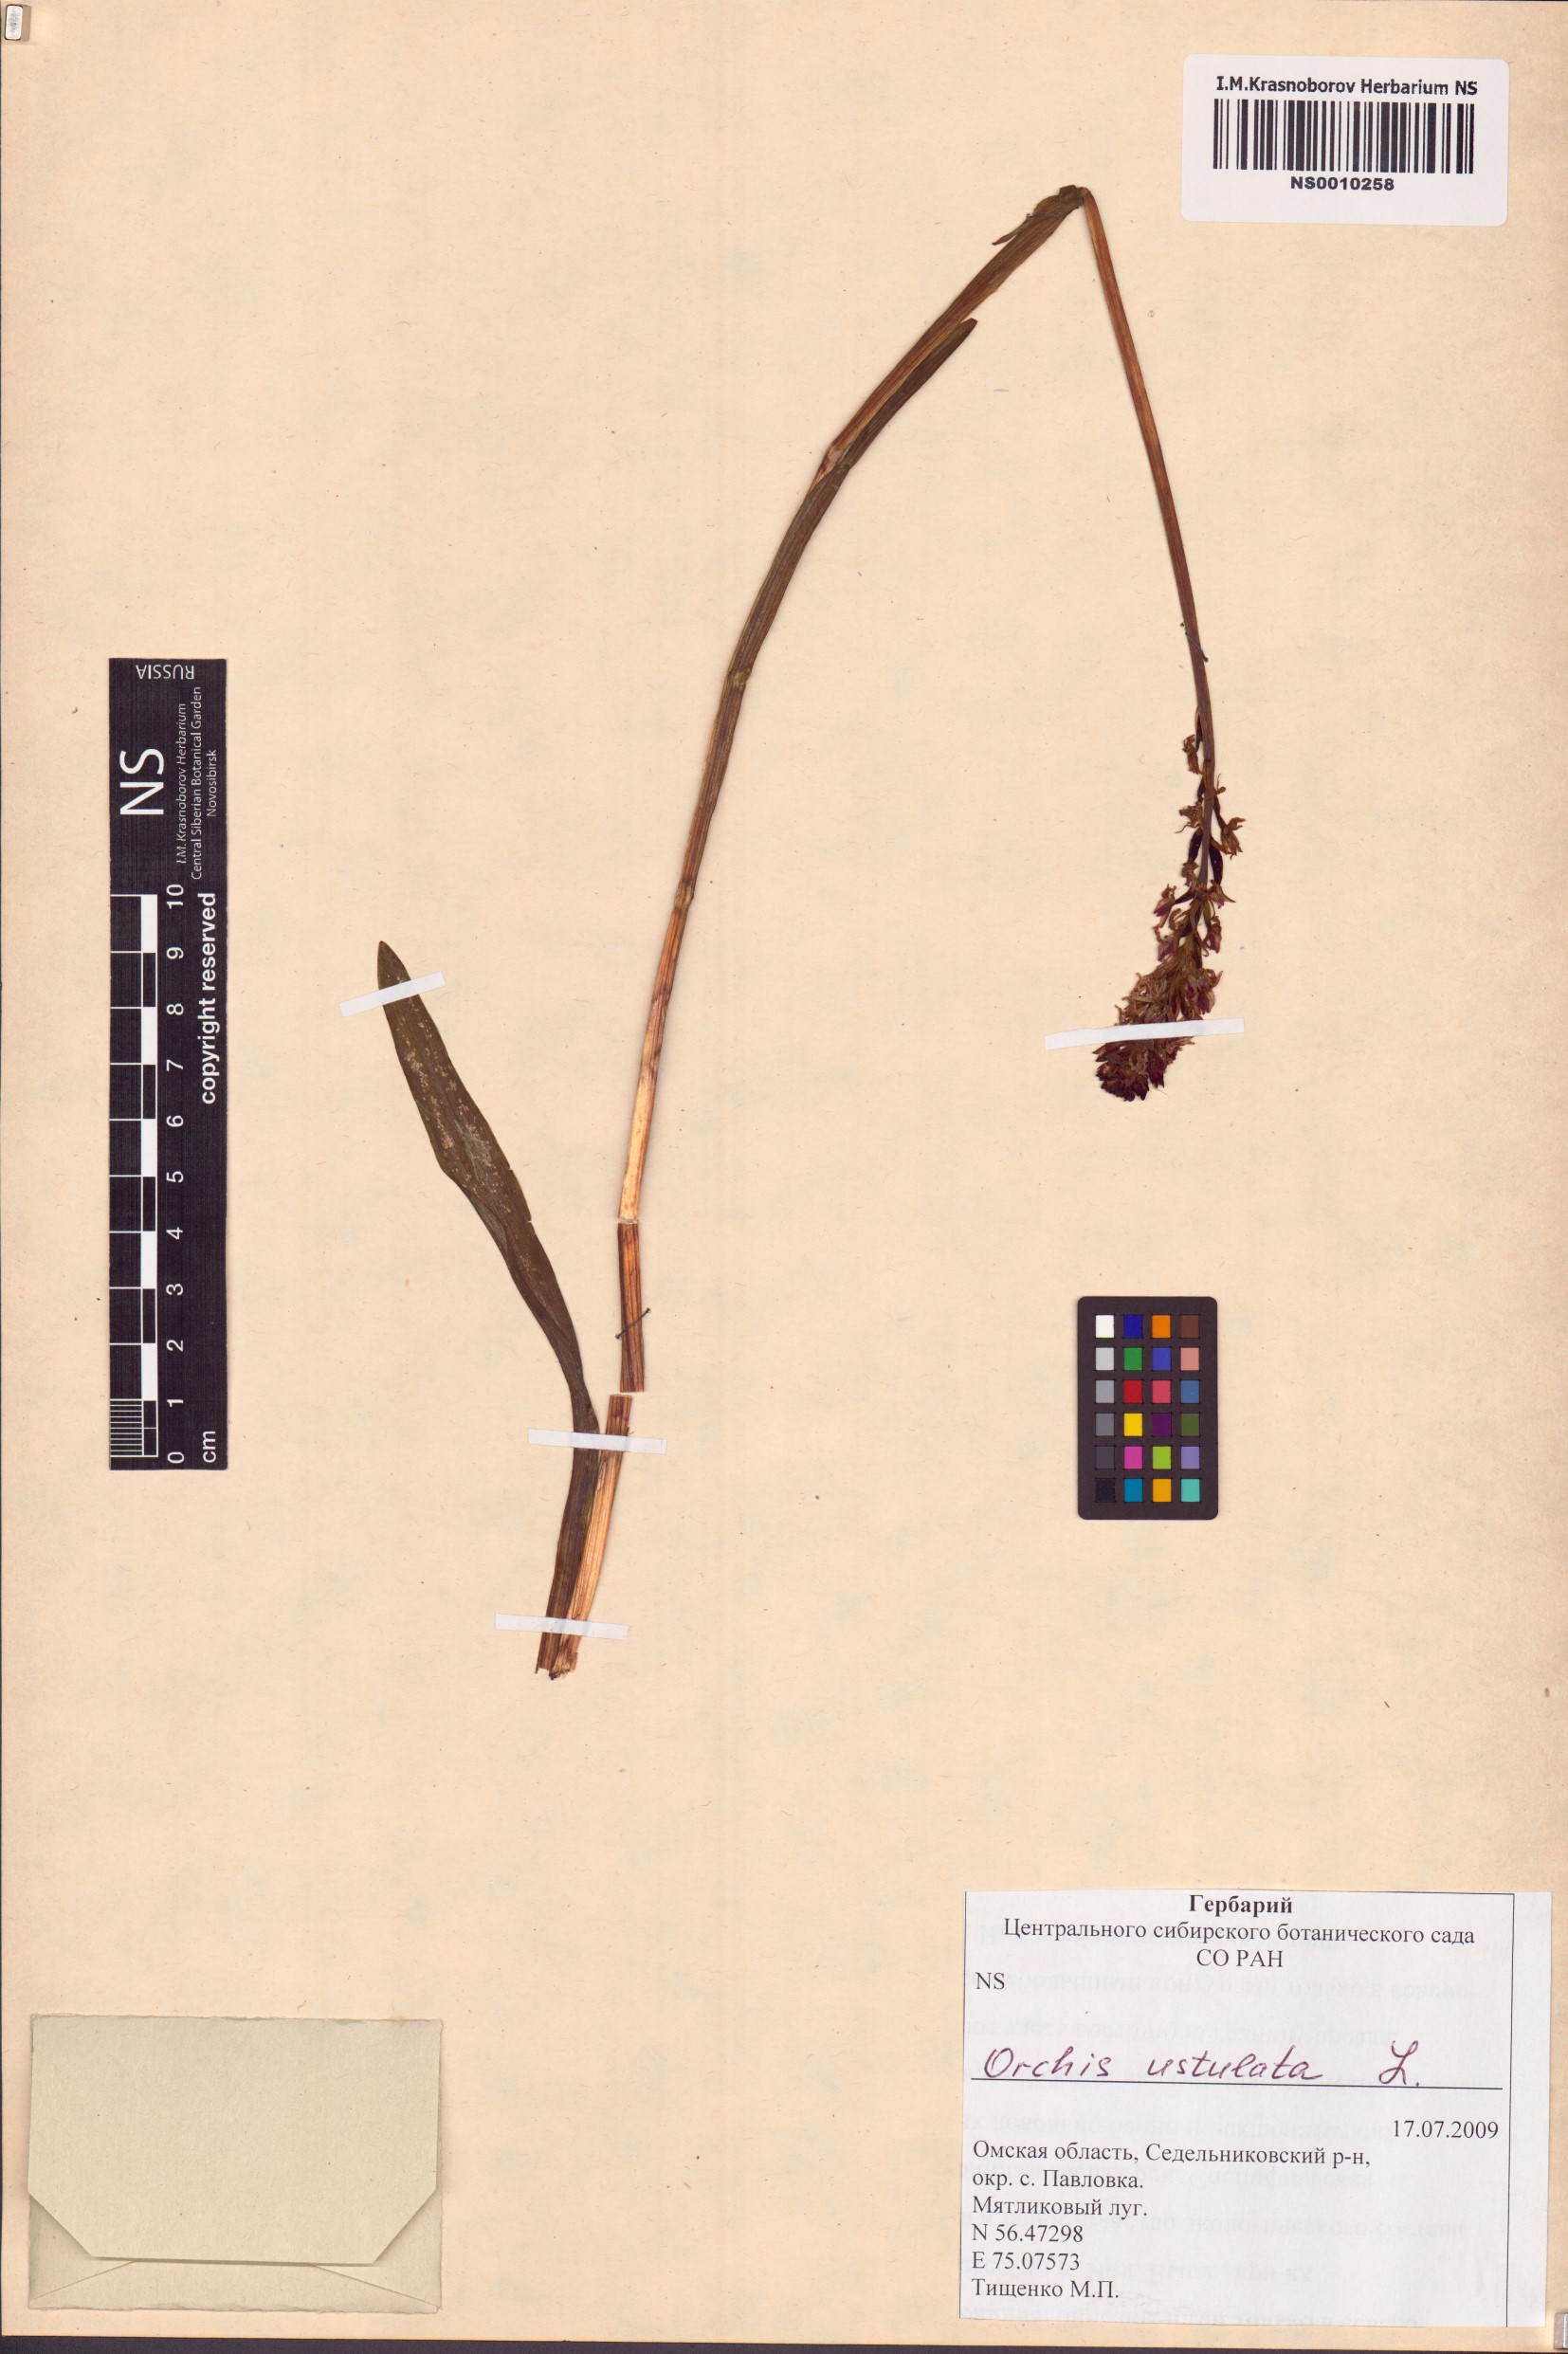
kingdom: Plantae
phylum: Tracheophyta
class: Liliopsida
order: Asparagales
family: Orchidaceae
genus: Neotinea
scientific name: Neotinea ustulata
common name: Burnt orchid
